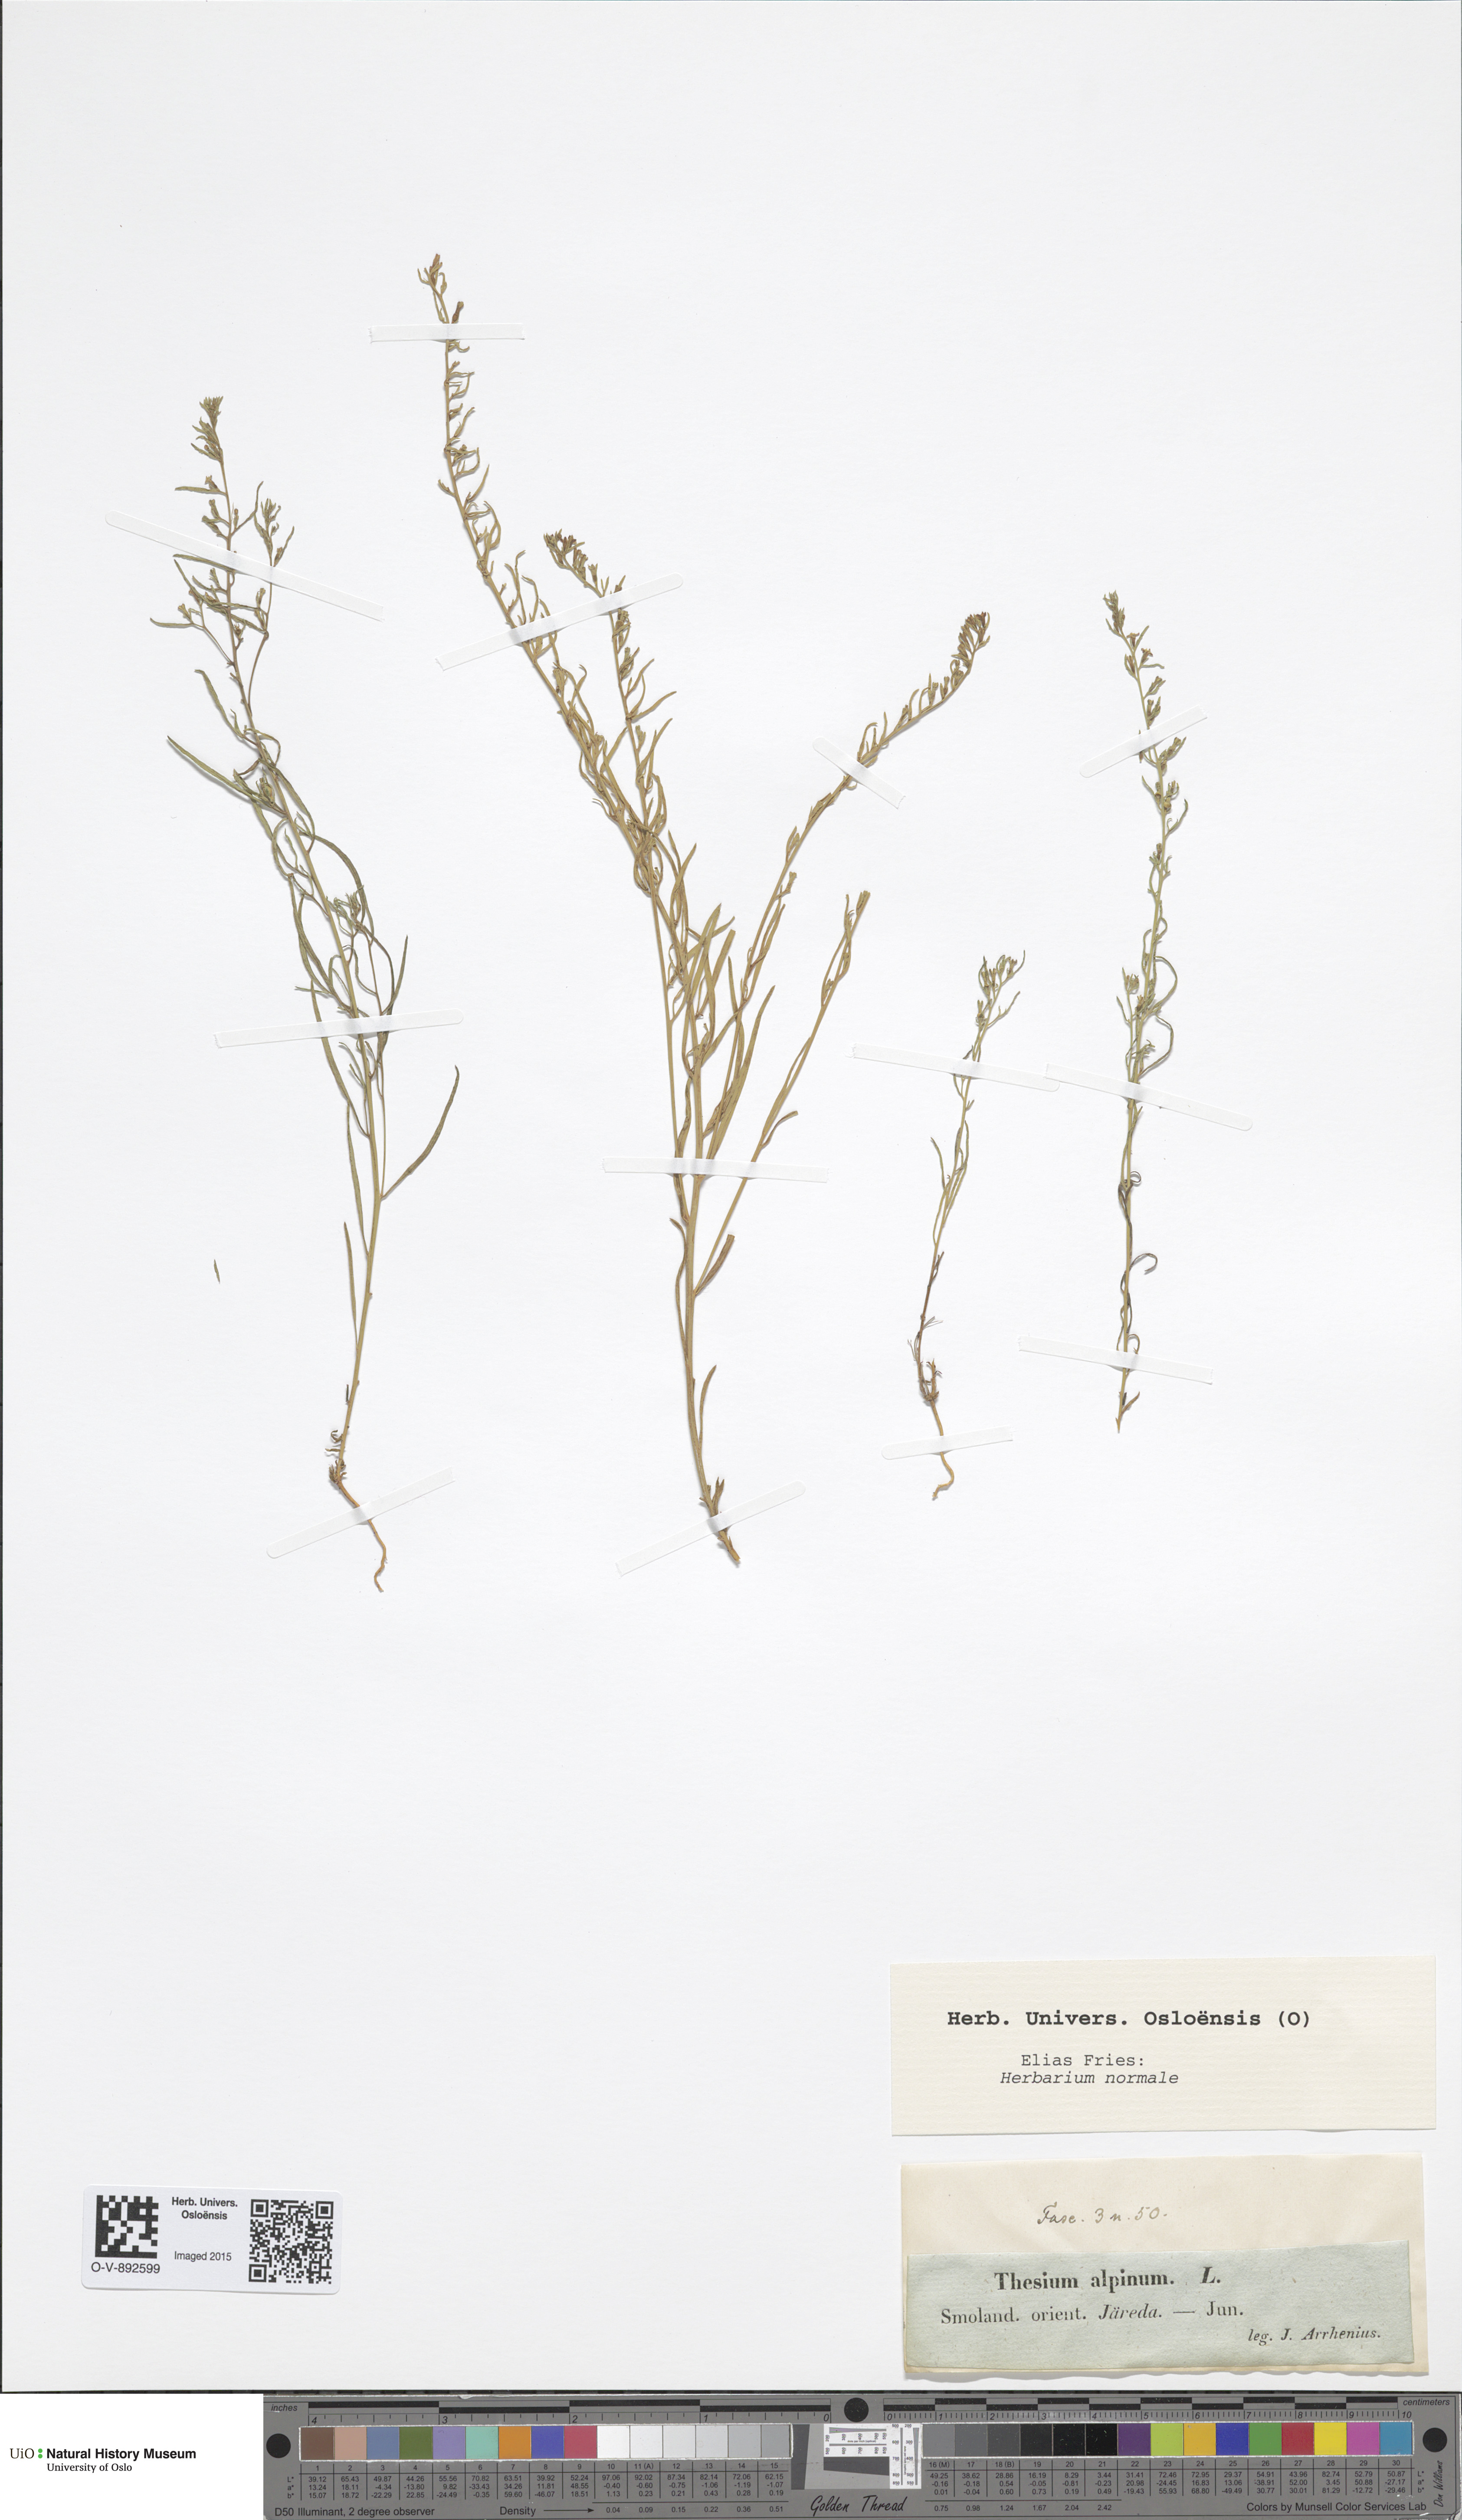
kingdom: Plantae
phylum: Tracheophyta
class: Magnoliopsida
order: Santalales
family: Thesiaceae
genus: Thesium
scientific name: Thesium alpinum
